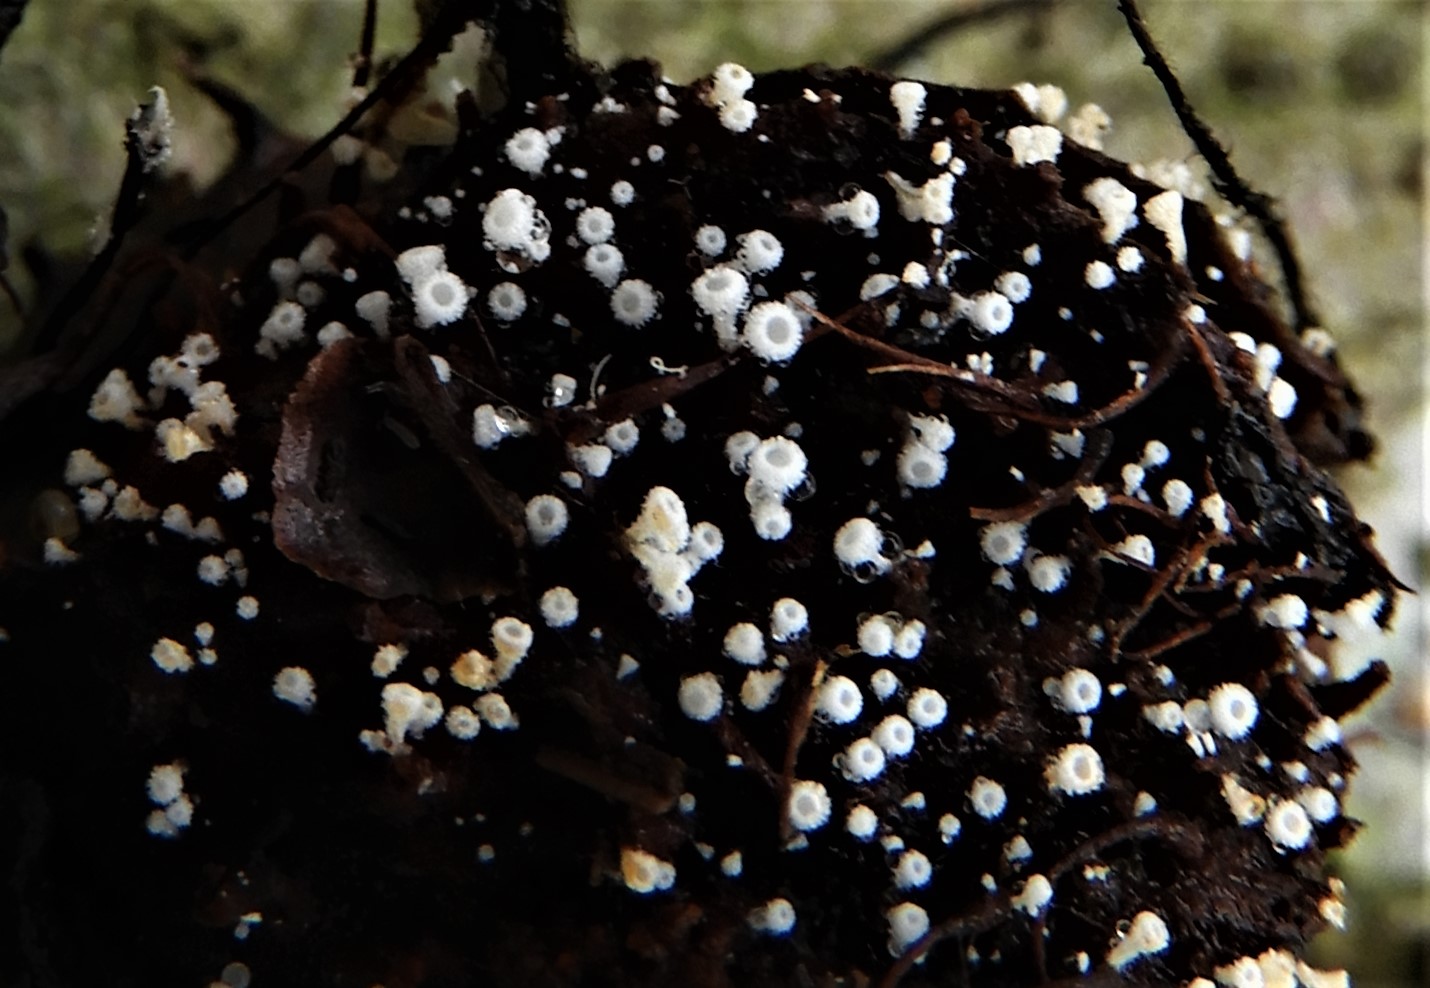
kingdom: Fungi
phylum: Ascomycota
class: Leotiomycetes
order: Helotiales
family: Lachnaceae
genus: Lachnum
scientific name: Lachnum virgineum
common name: jomfru-frynseskive
